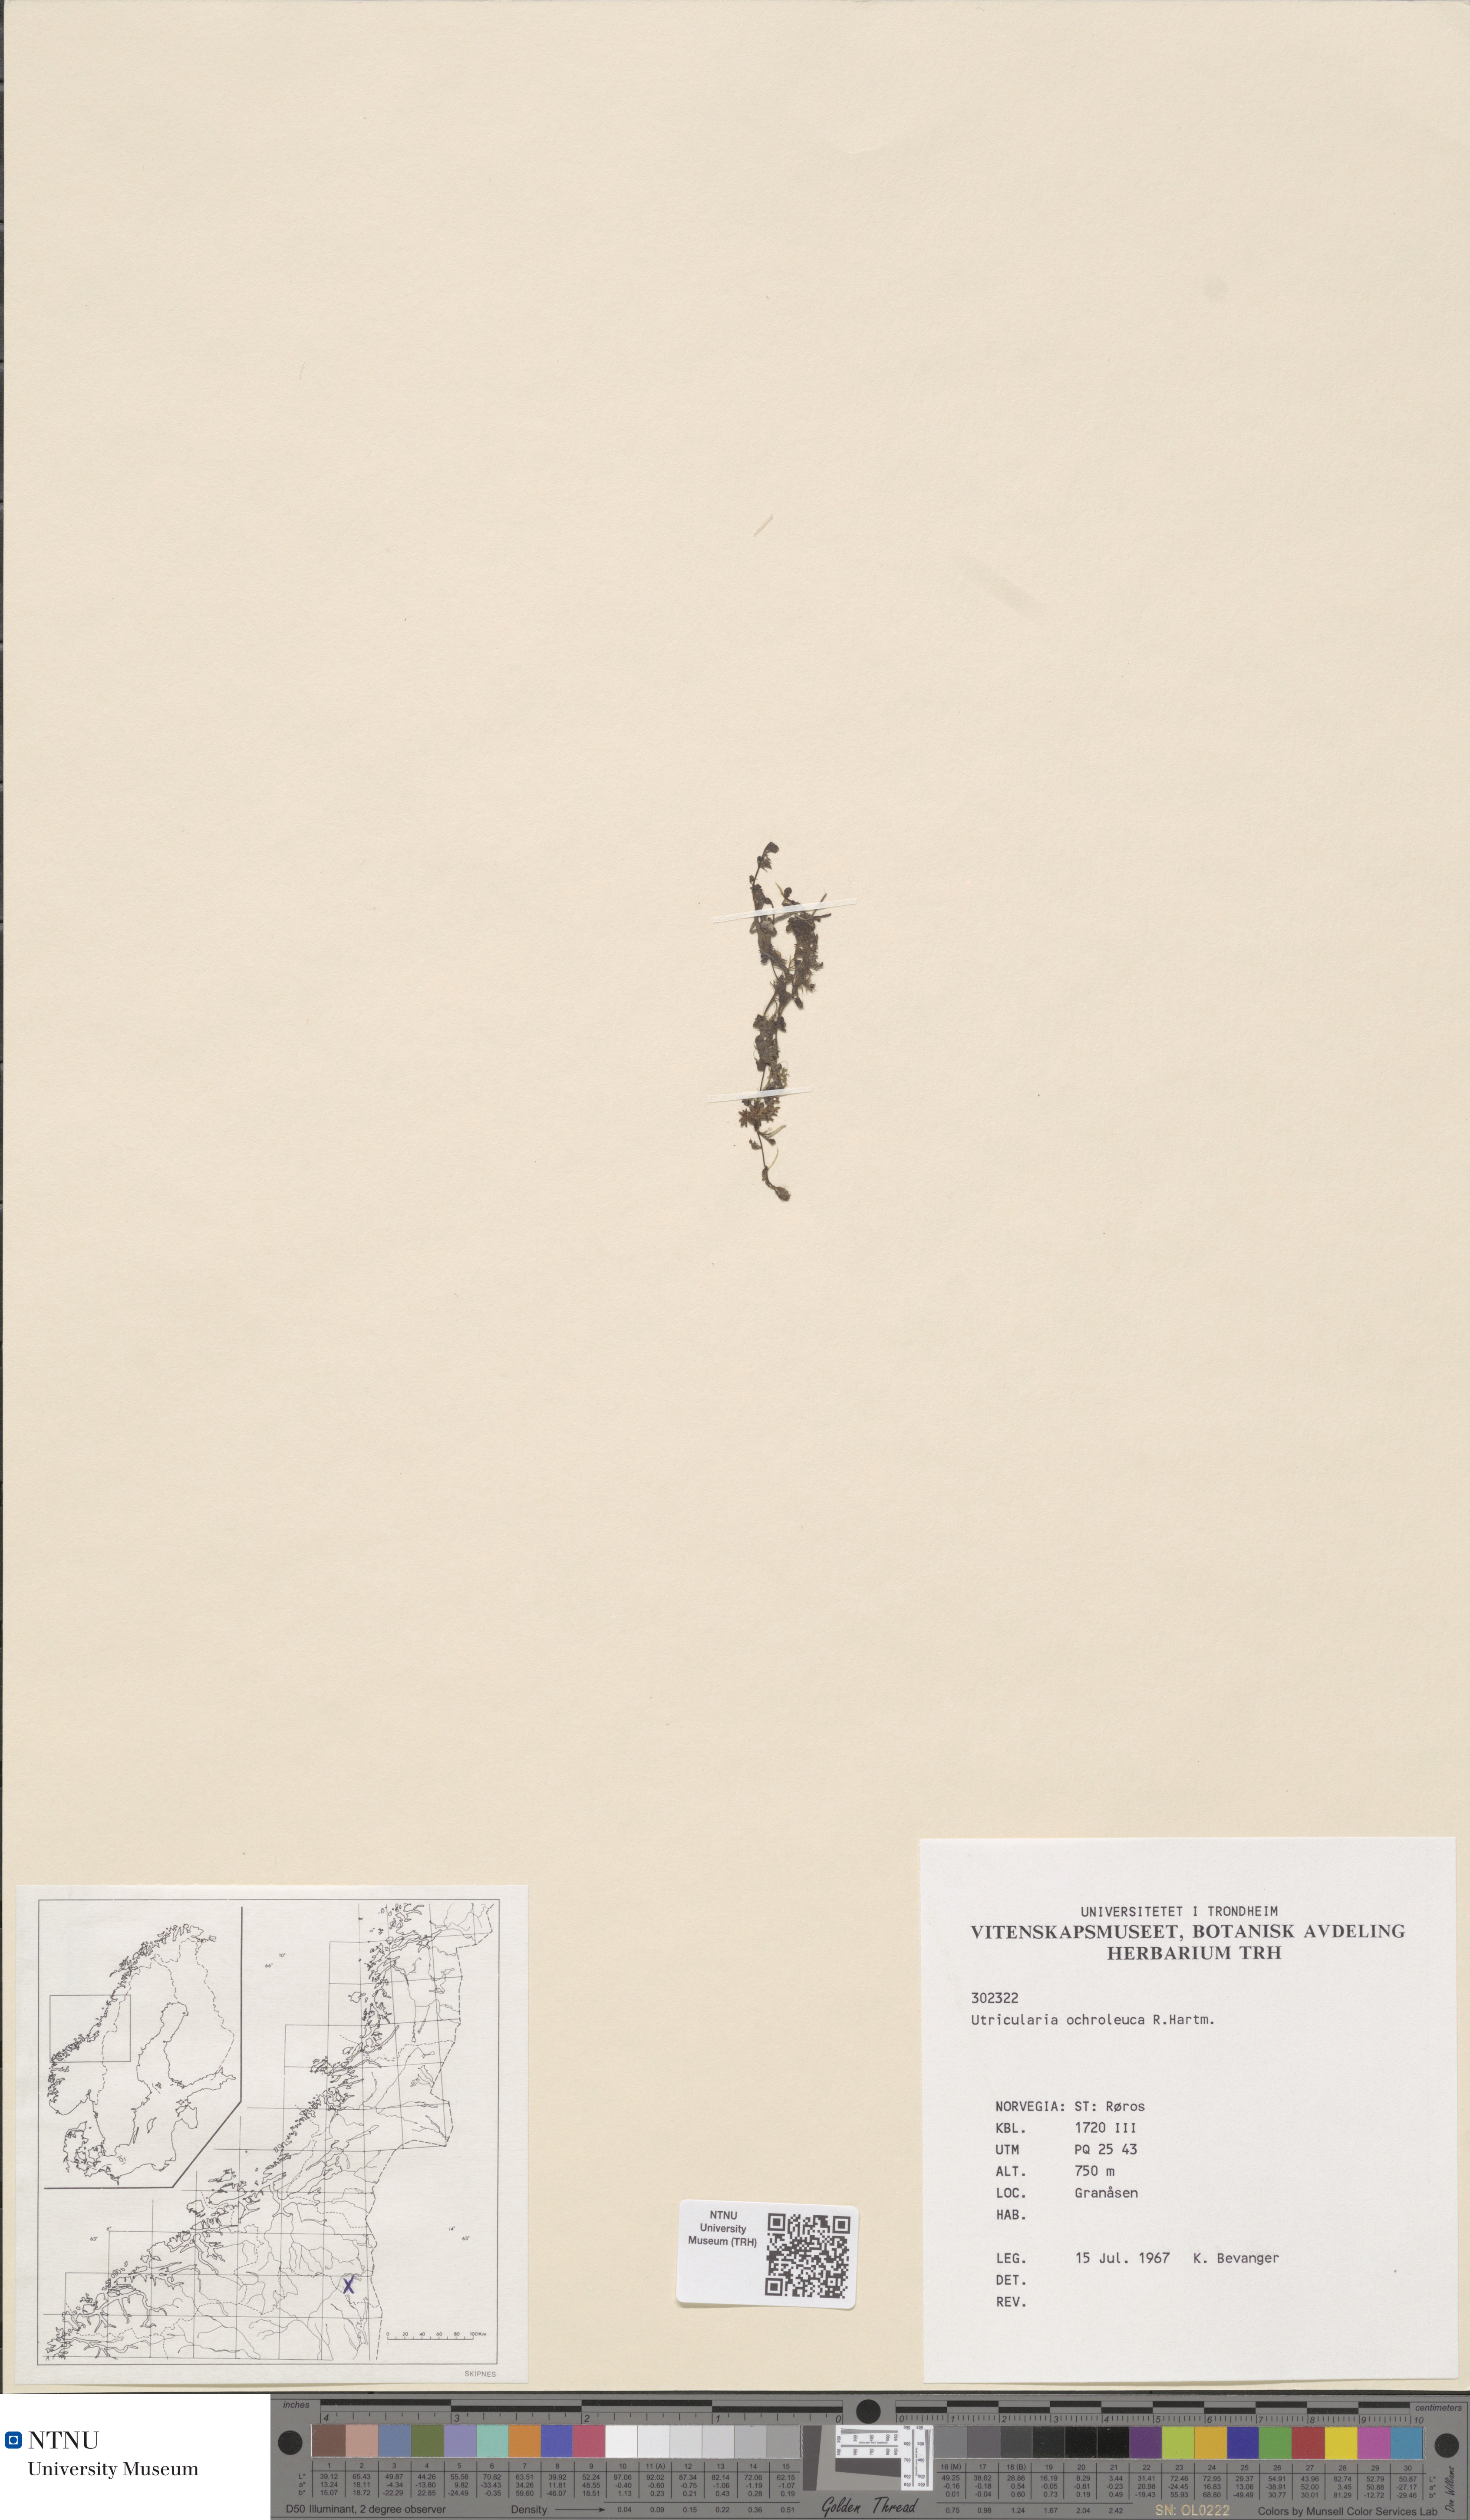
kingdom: Plantae
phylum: Tracheophyta
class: Magnoliopsida
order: Lamiales
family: Lentibulariaceae
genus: Utricularia
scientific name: Utricularia ochroleuca
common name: Pale bladderwort
